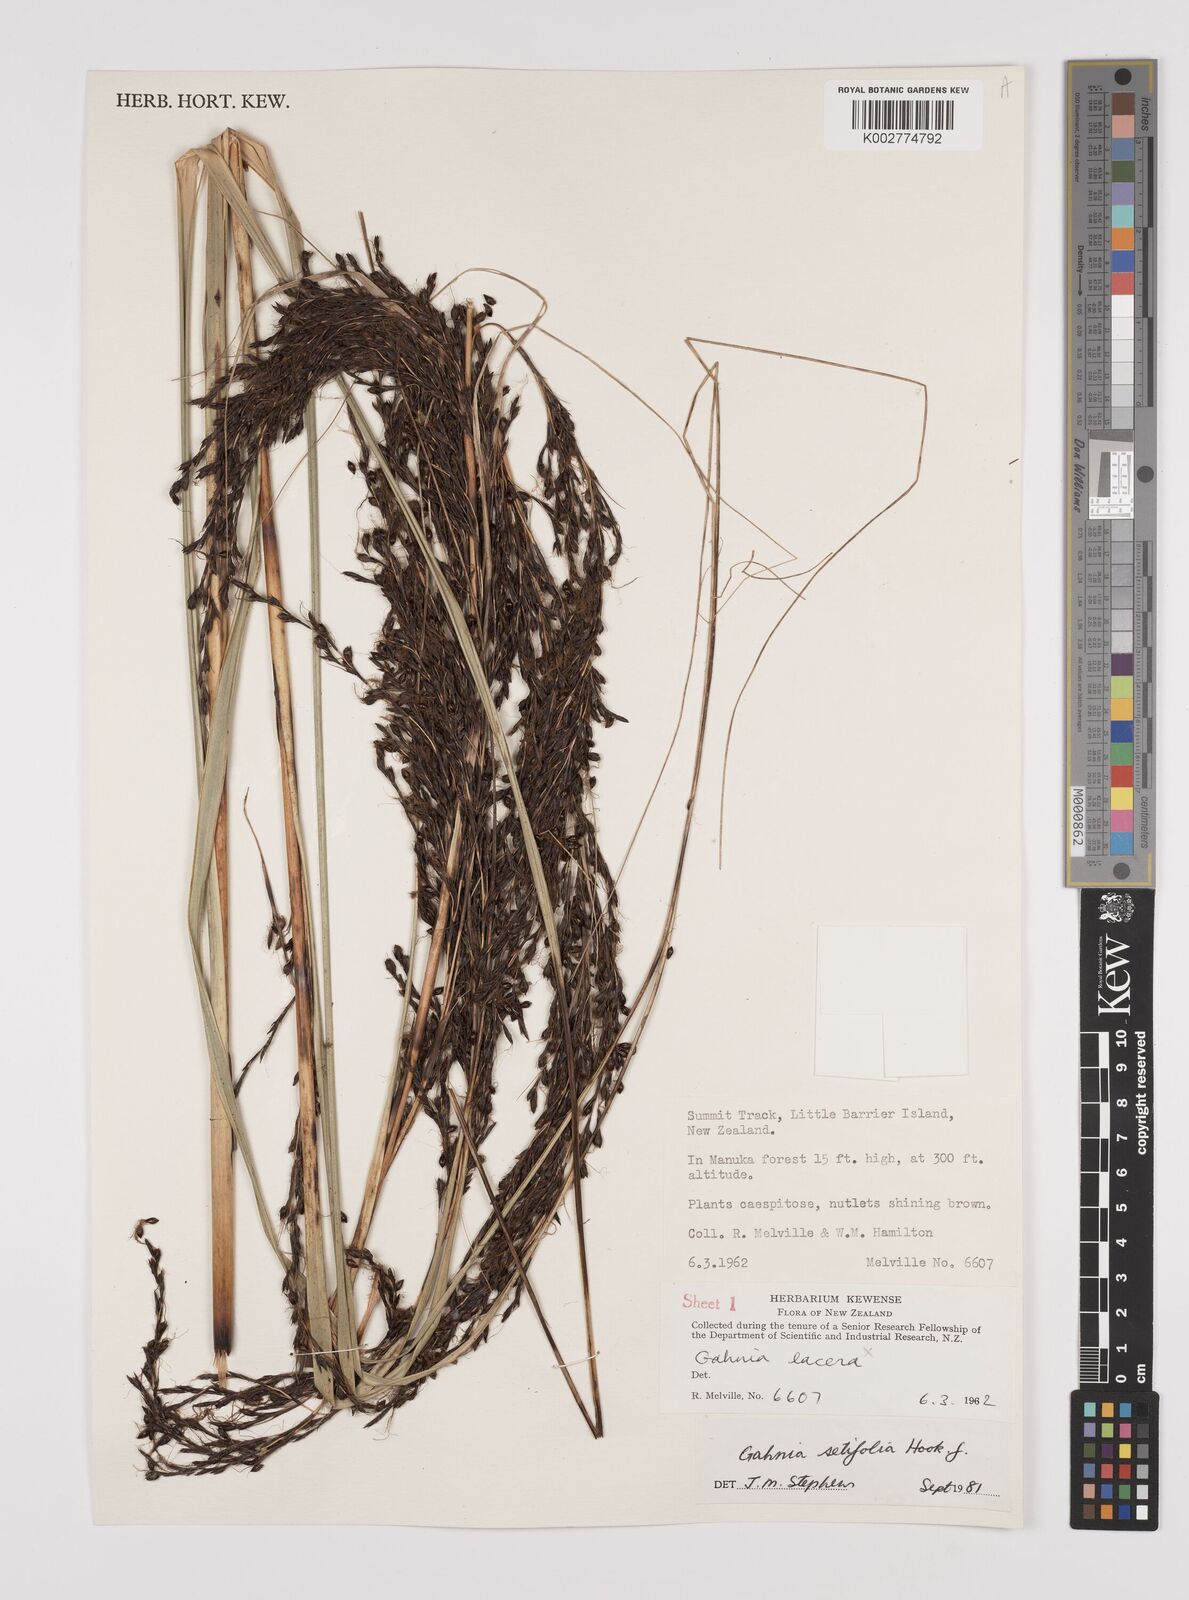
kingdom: Plantae
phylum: Tracheophyta
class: Liliopsida
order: Poales
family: Cyperaceae
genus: Gahnia
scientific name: Gahnia setifolia
